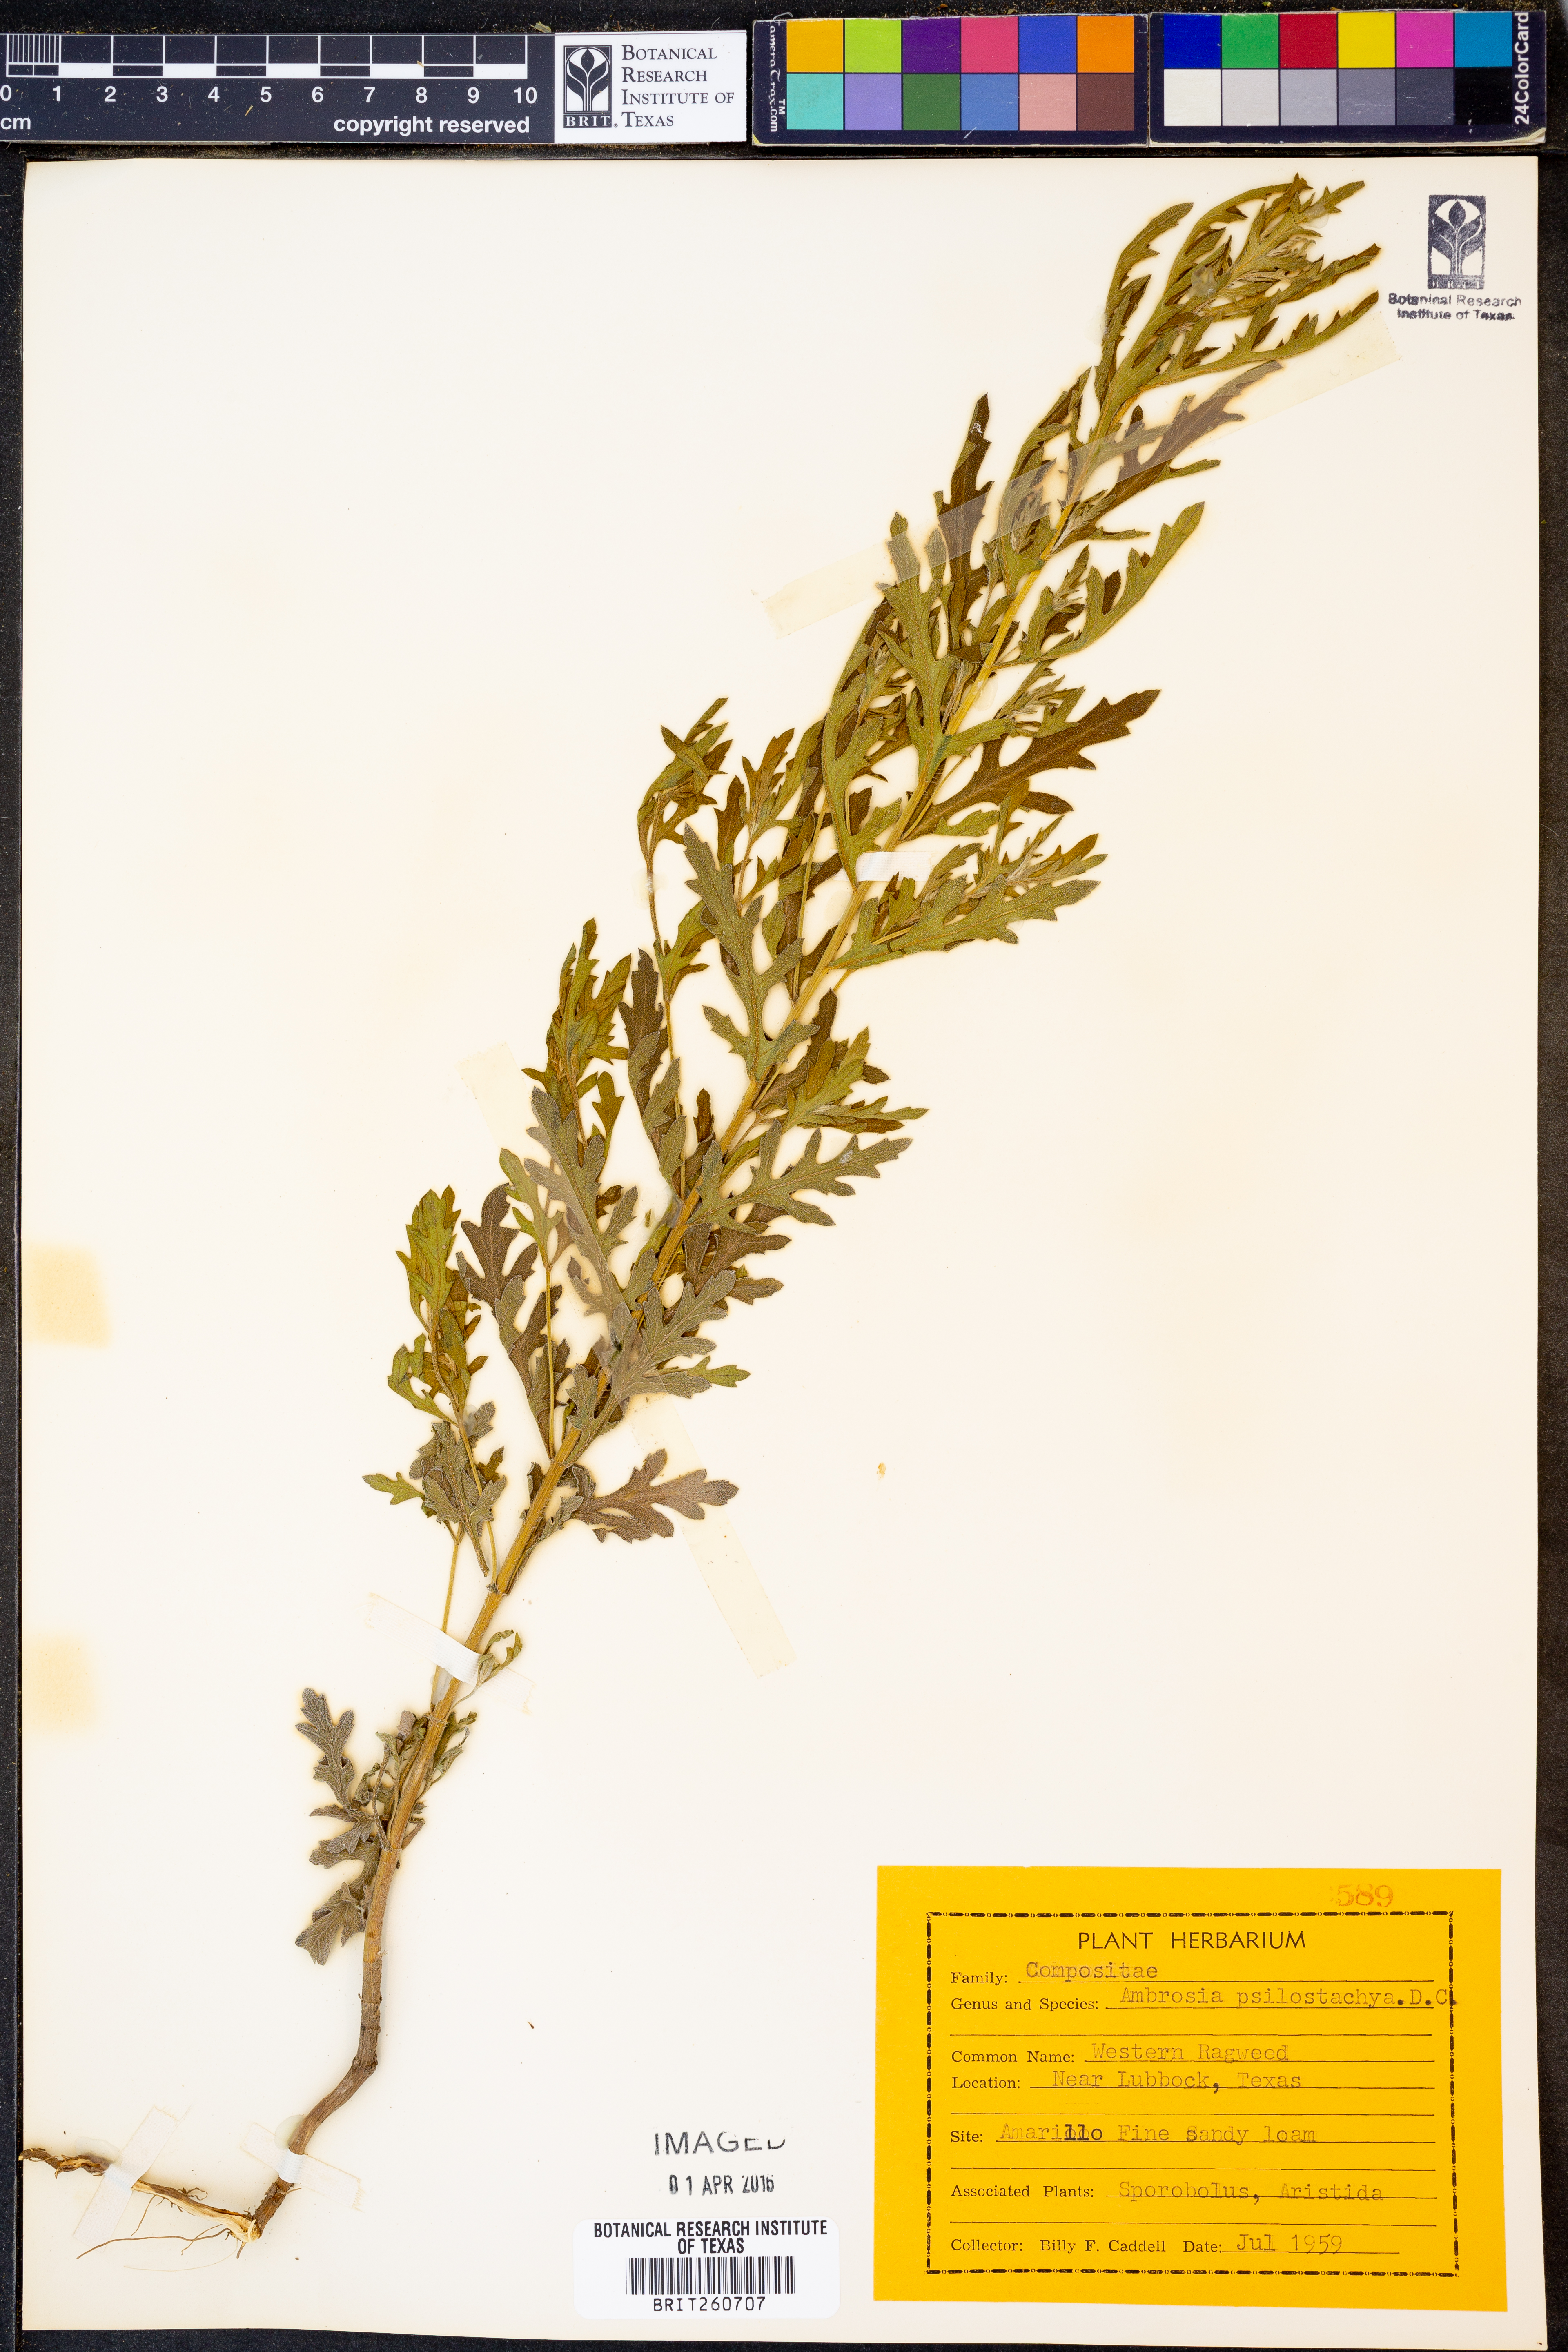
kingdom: Plantae
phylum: Tracheophyta
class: Magnoliopsida
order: Asterales
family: Asteraceae
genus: Ambrosia
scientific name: Ambrosia psilostachya
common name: Perennial ragweed
